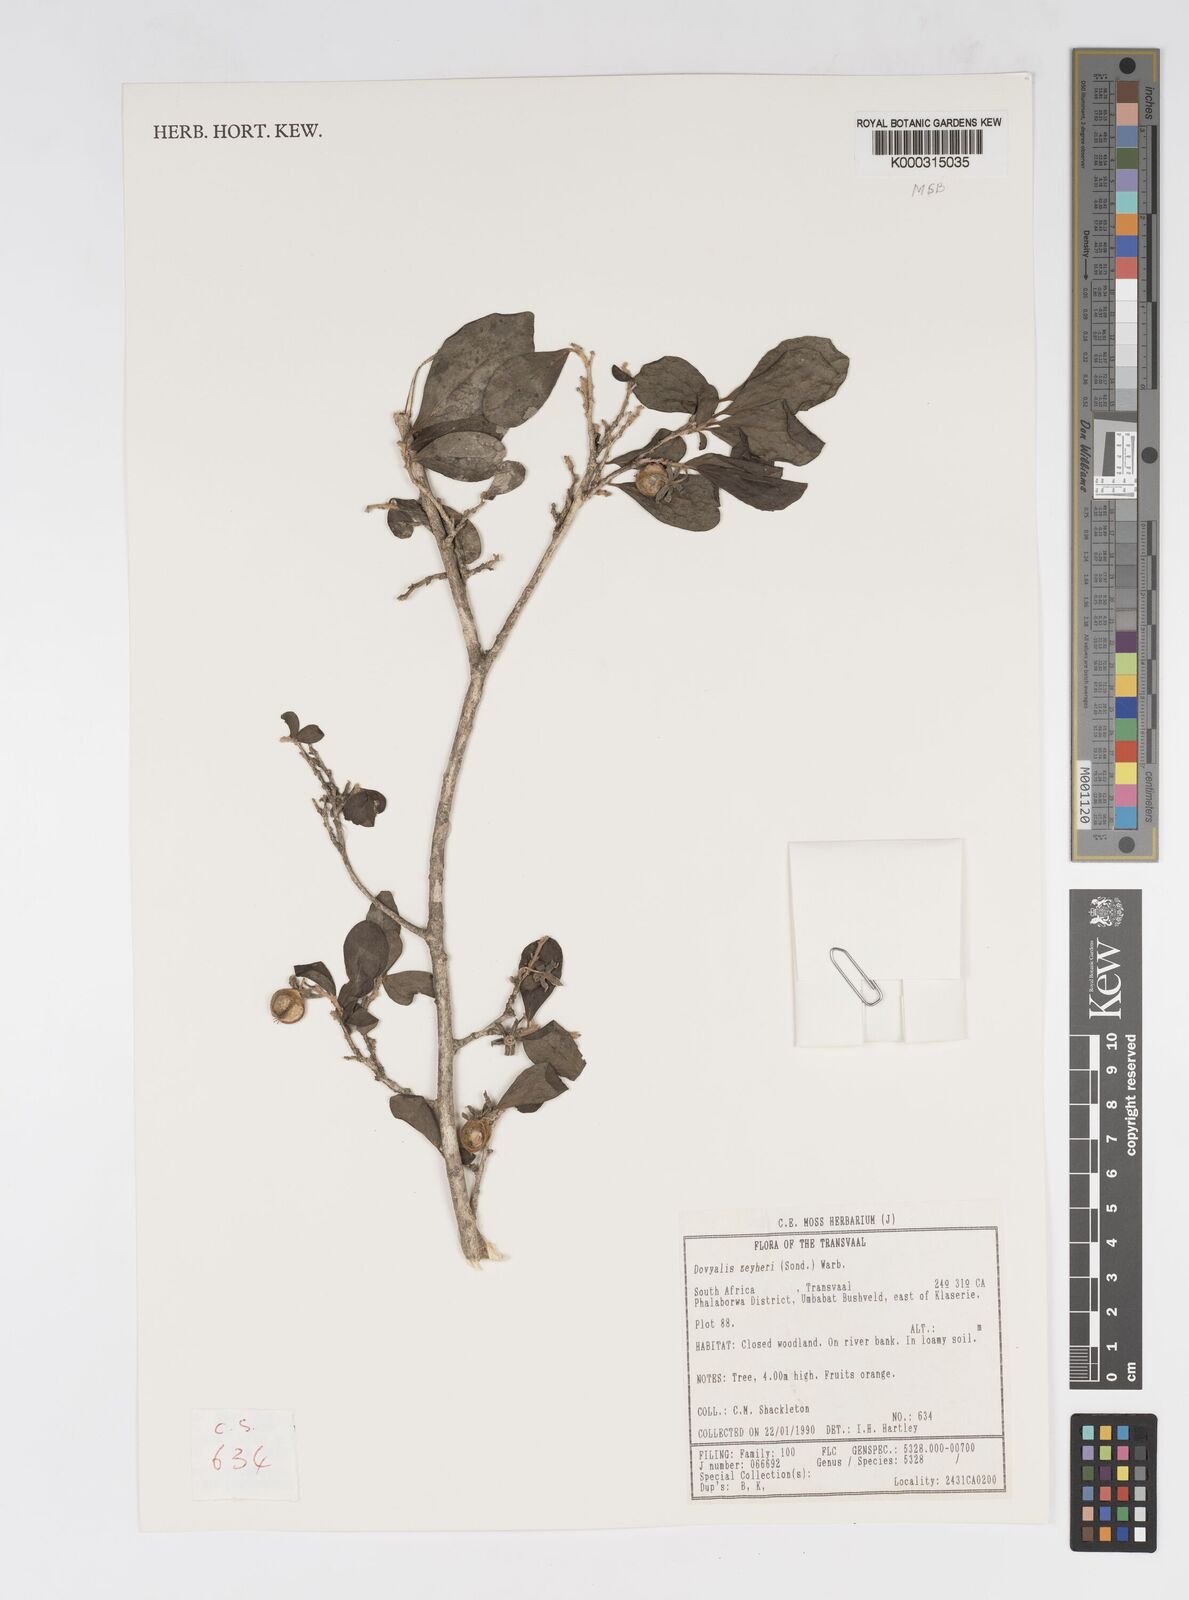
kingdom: Plantae
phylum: Tracheophyta
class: Magnoliopsida
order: Malpighiales
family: Salicaceae
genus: Dovyalis
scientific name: Dovyalis zeyheri
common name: Apricot sourberry
